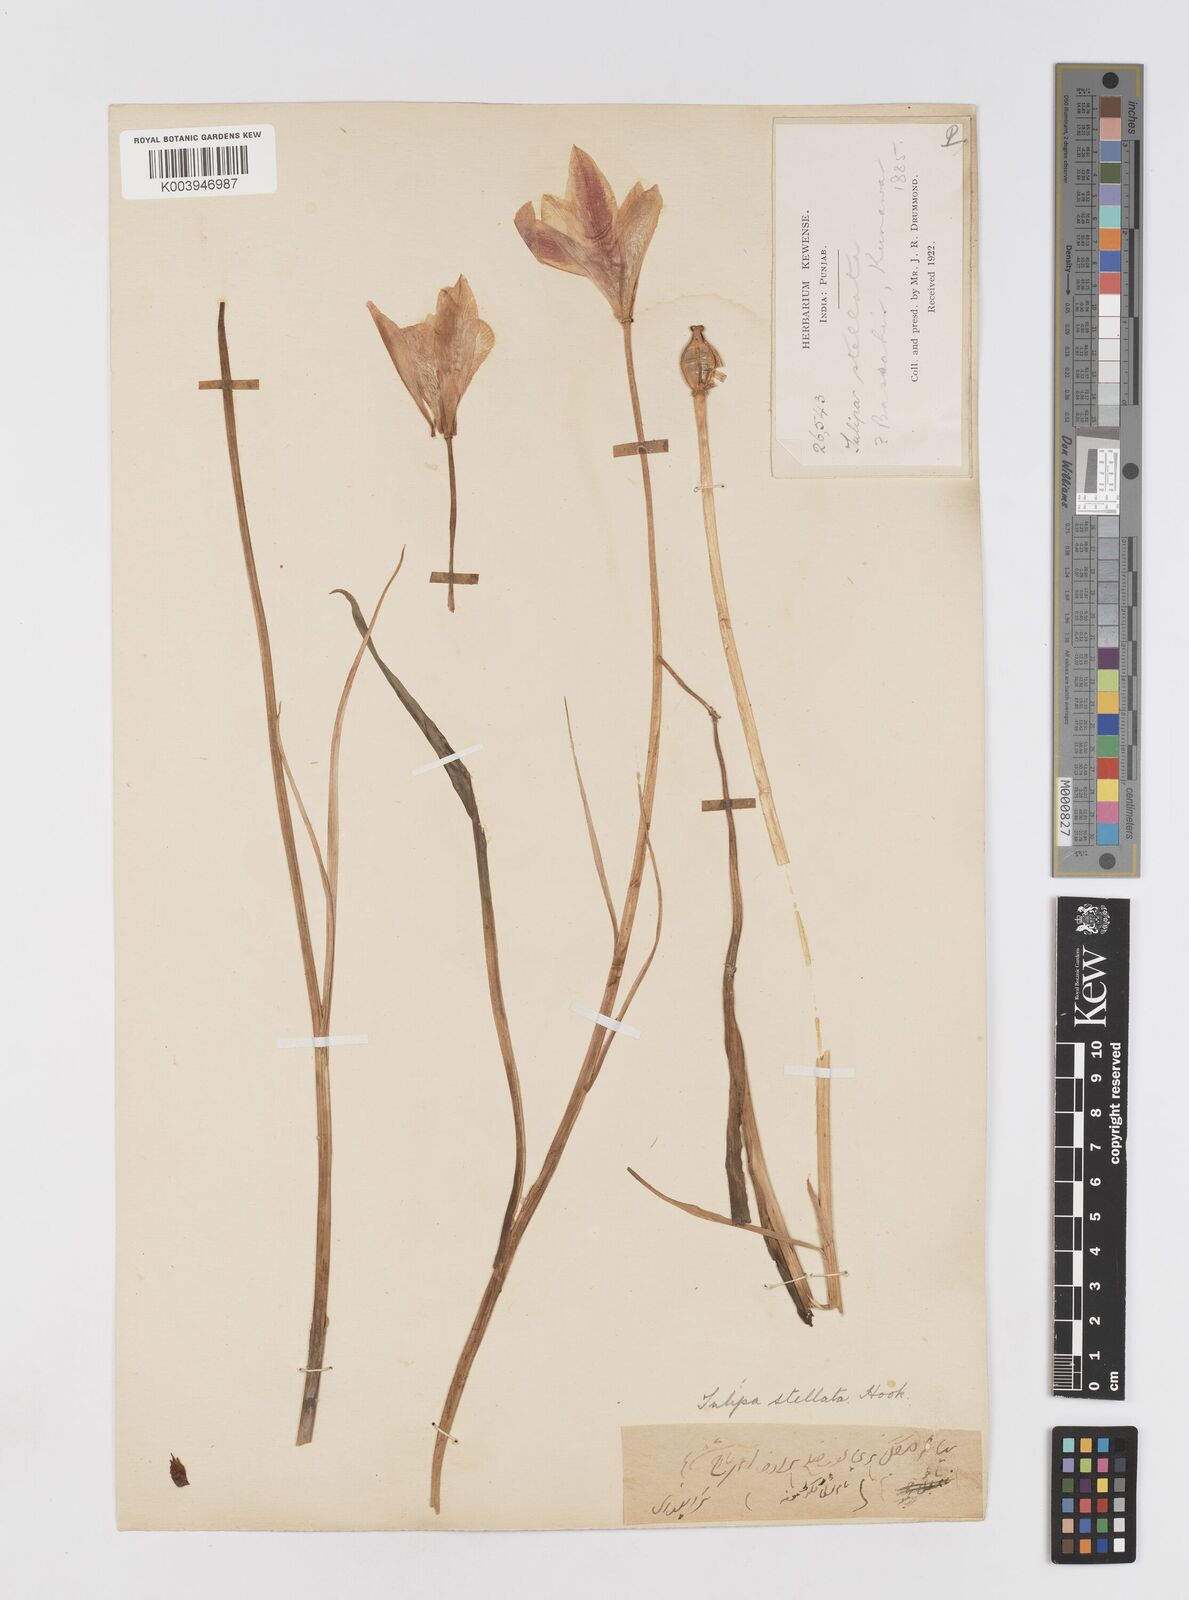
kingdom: Plantae
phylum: Tracheophyta
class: Liliopsida
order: Liliales
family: Liliaceae
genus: Tulipa
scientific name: Tulipa clusiana
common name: Lady tulip
